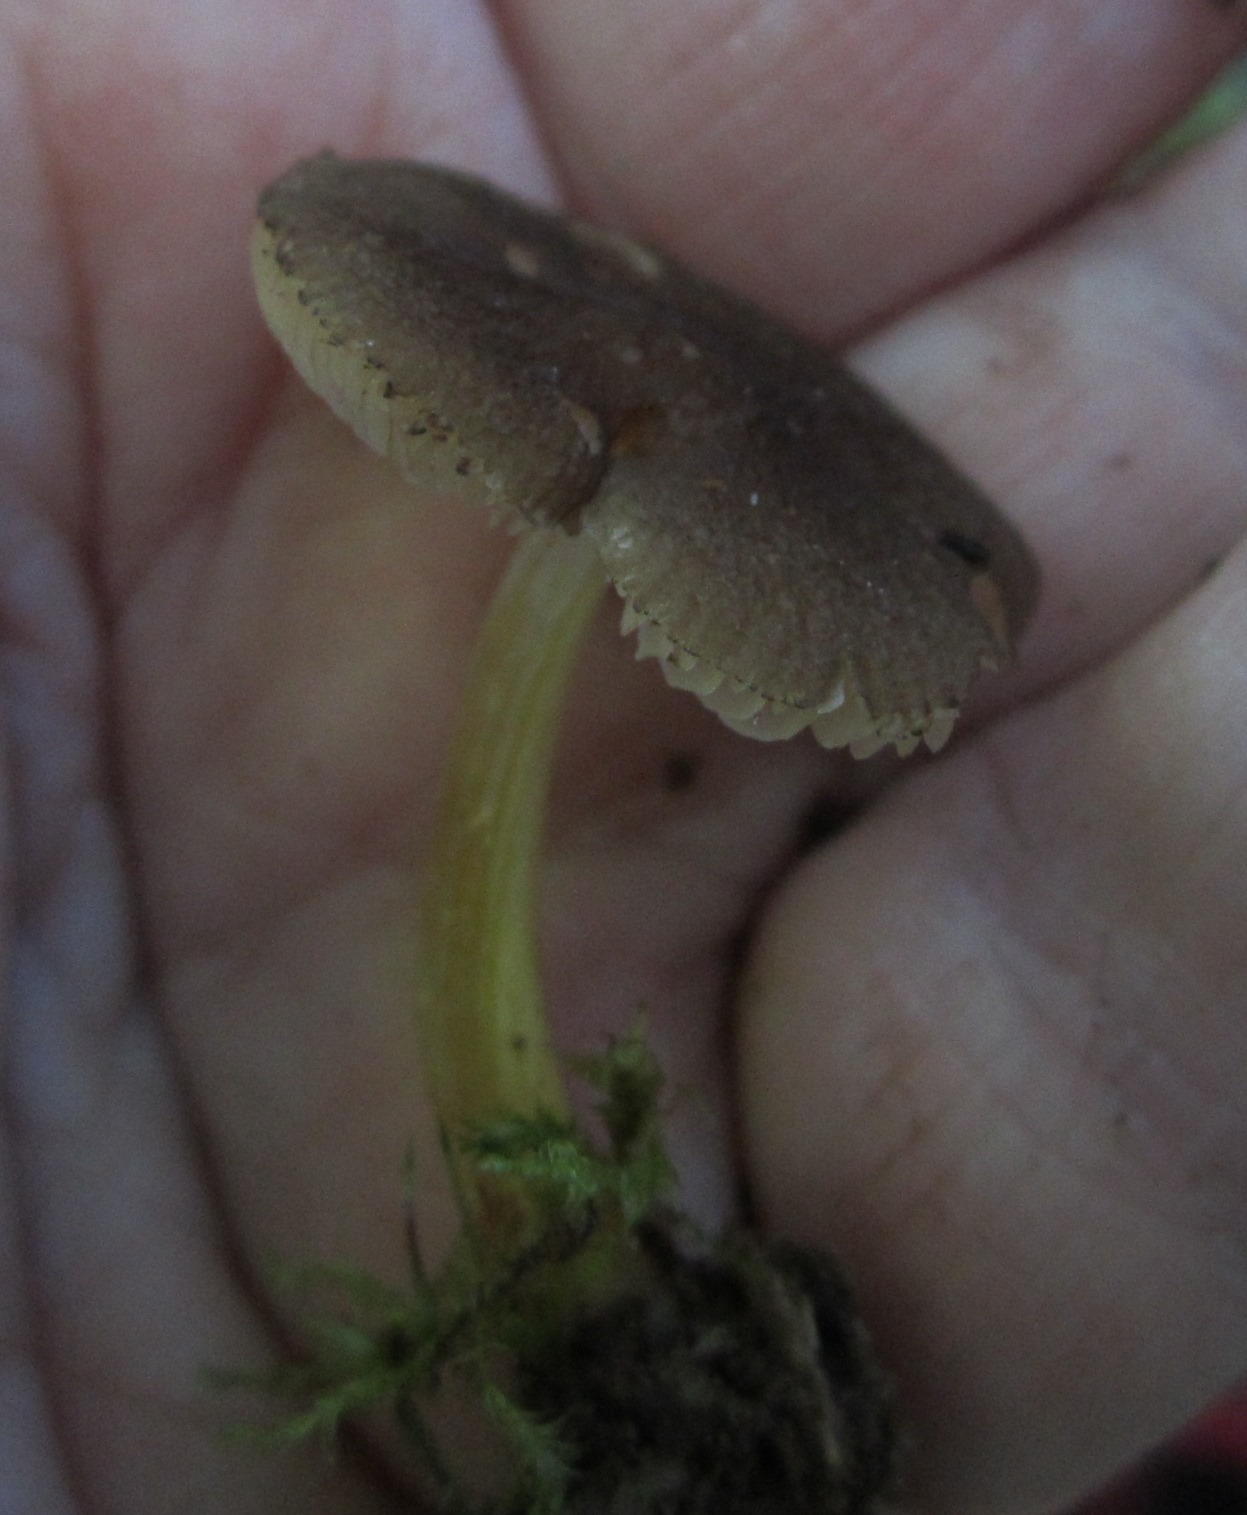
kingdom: Fungi
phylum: Basidiomycota
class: Agaricomycetes
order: Agaricales
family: Pluteaceae
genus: Pluteus
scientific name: Pluteus romellii
